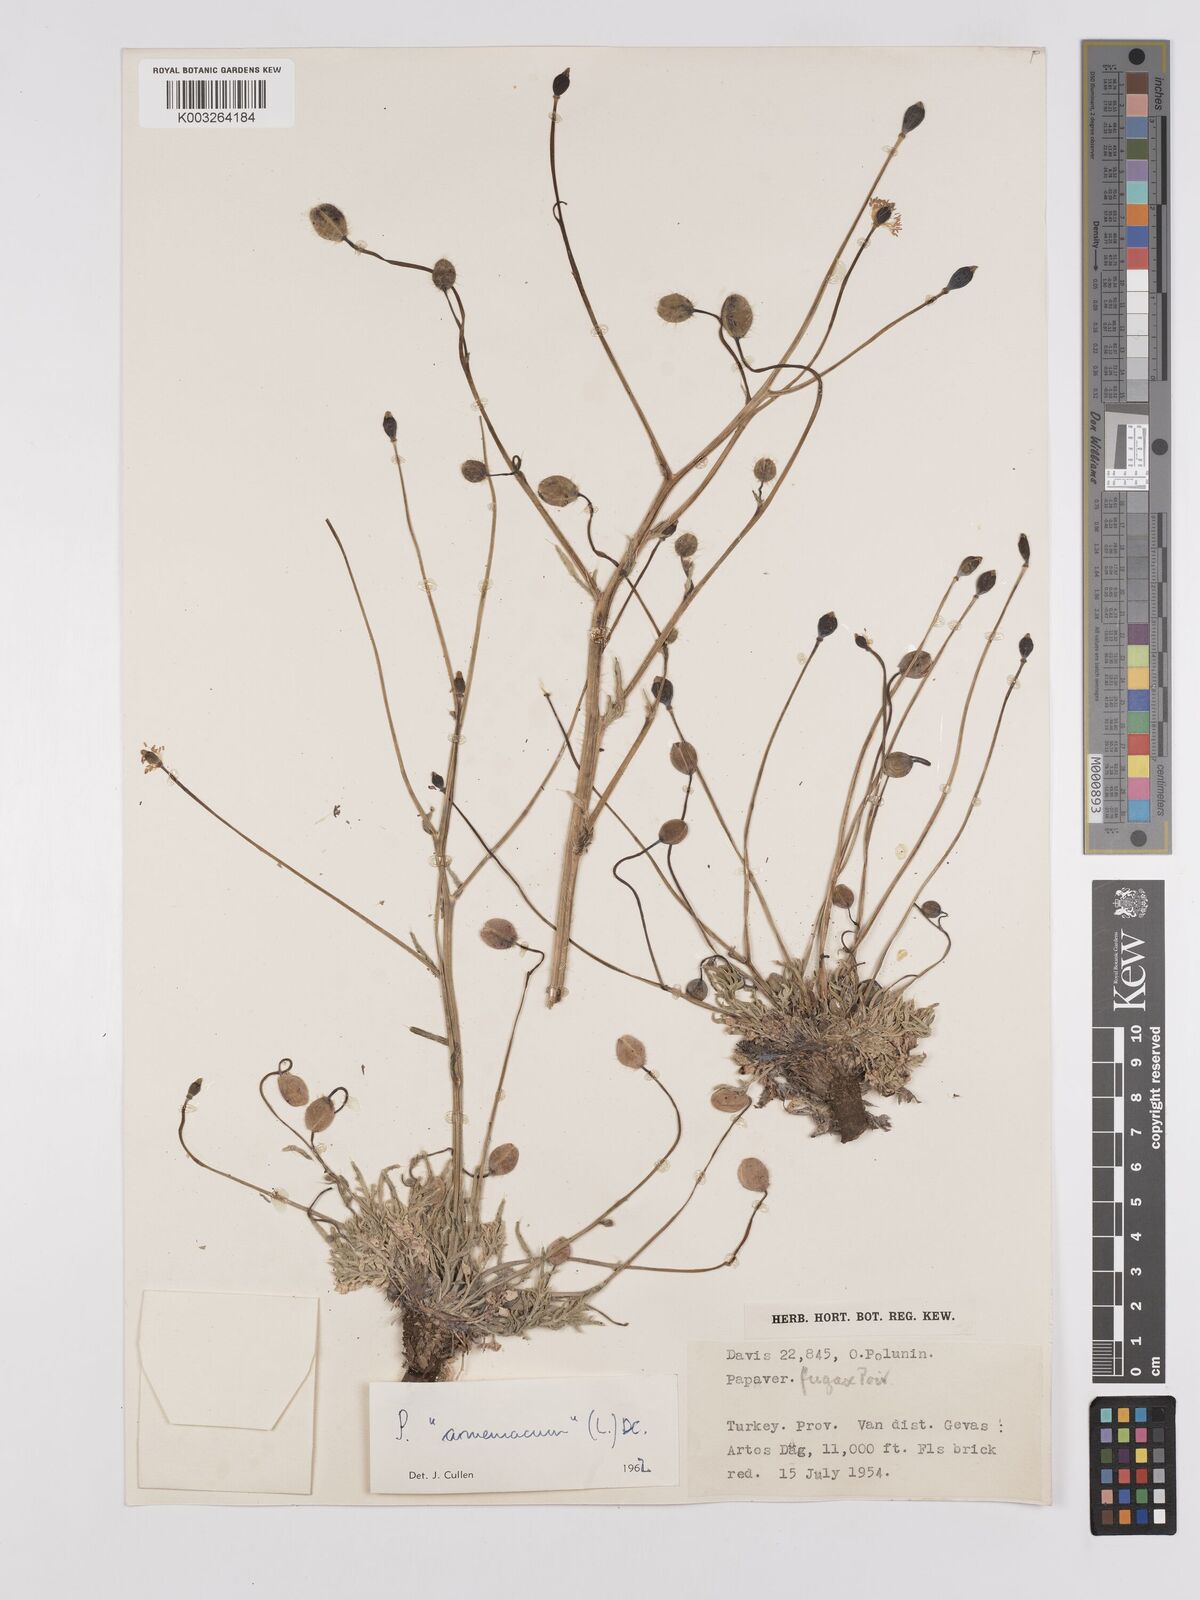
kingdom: Plantae
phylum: Tracheophyta
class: Magnoliopsida
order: Ranunculales
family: Papaveraceae
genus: Papaver
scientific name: Papaver armeniacum
